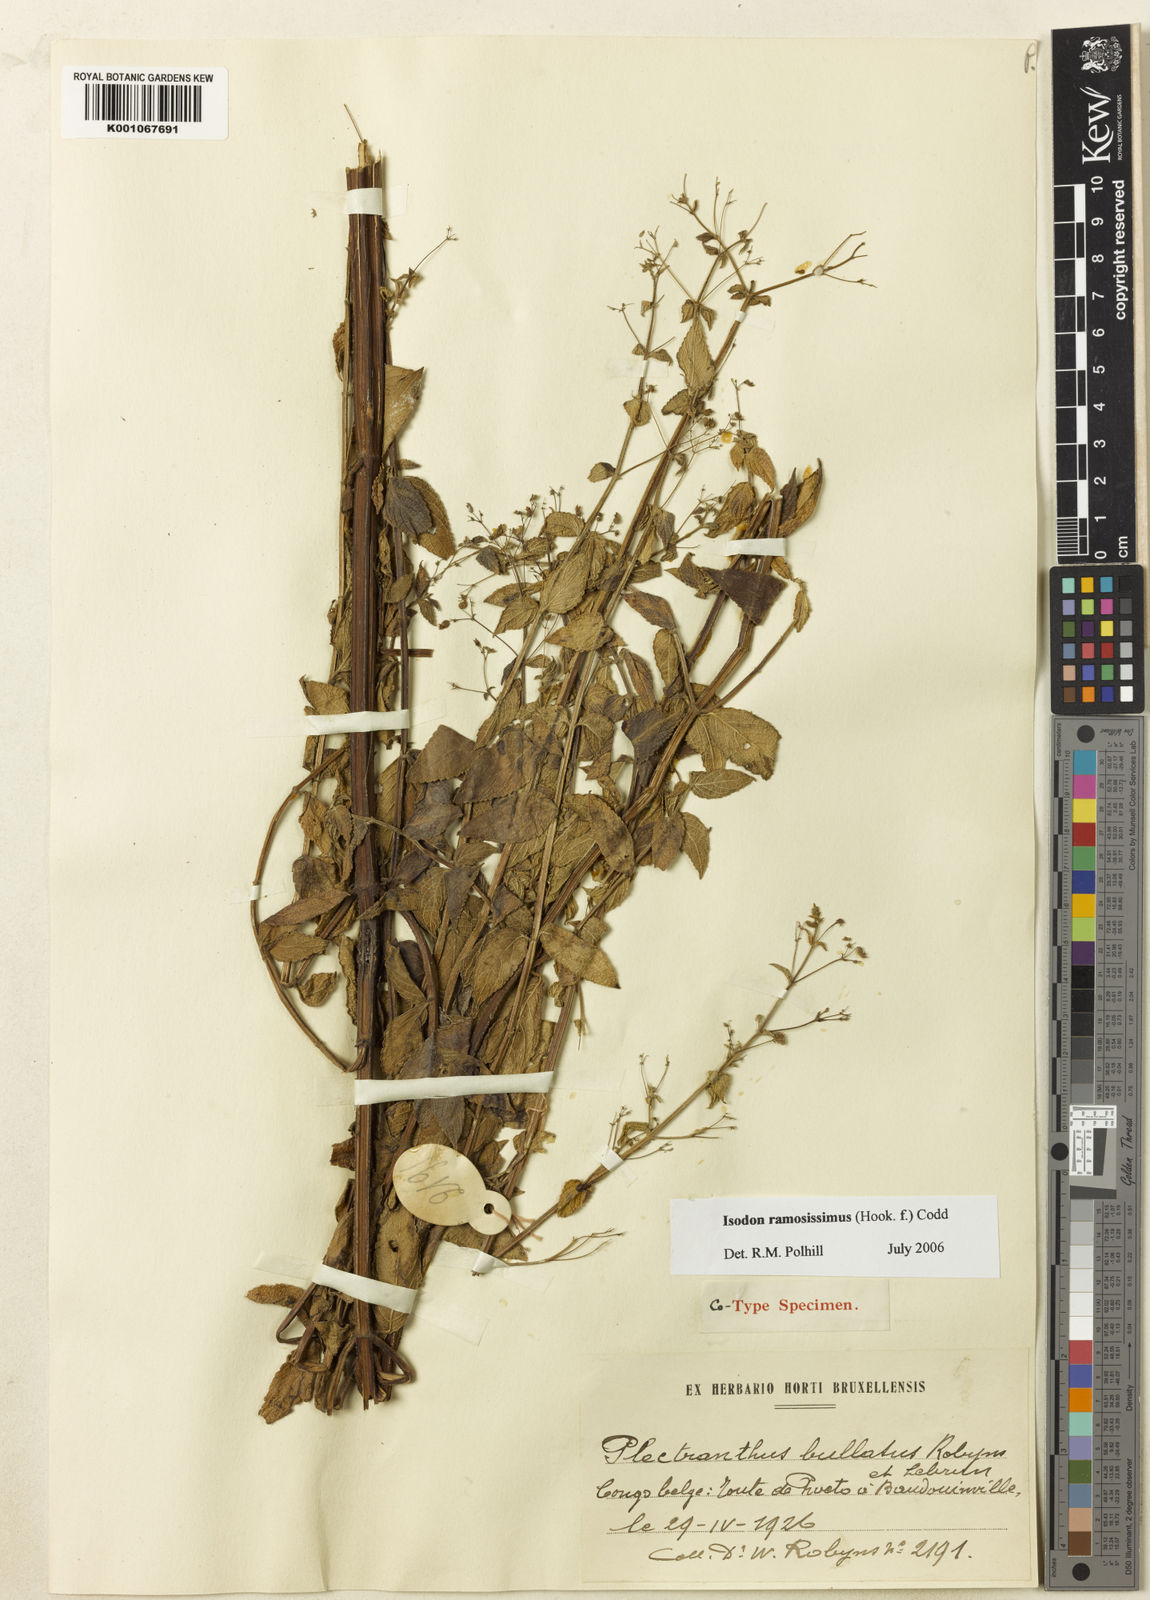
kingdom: Plantae
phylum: Tracheophyta
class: Magnoliopsida
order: Lamiales
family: Lamiaceae
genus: Isodon
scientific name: Isodon ramosissimus
